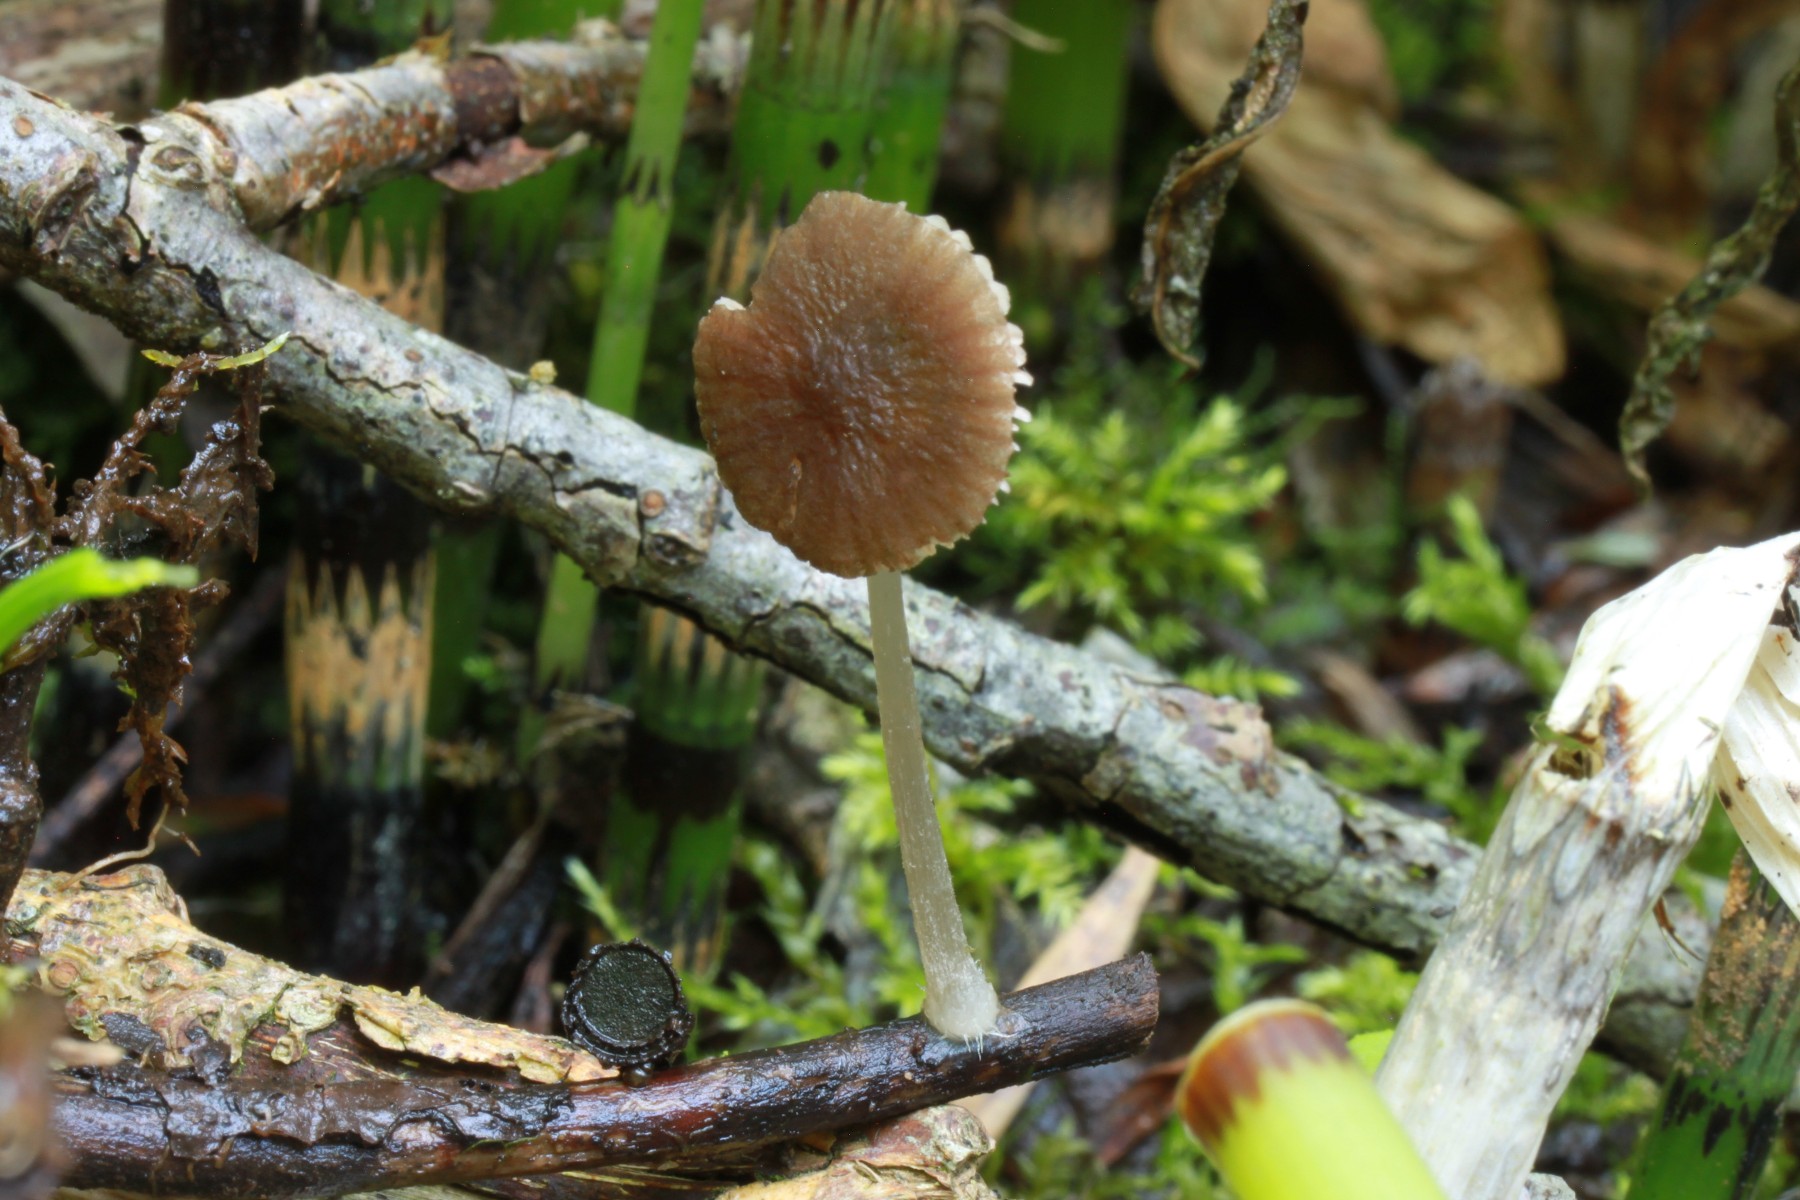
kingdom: Fungi
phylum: Basidiomycota
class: Agaricomycetes
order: Agaricales
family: Pluteaceae
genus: Pluteus
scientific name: Pluteus eludens
